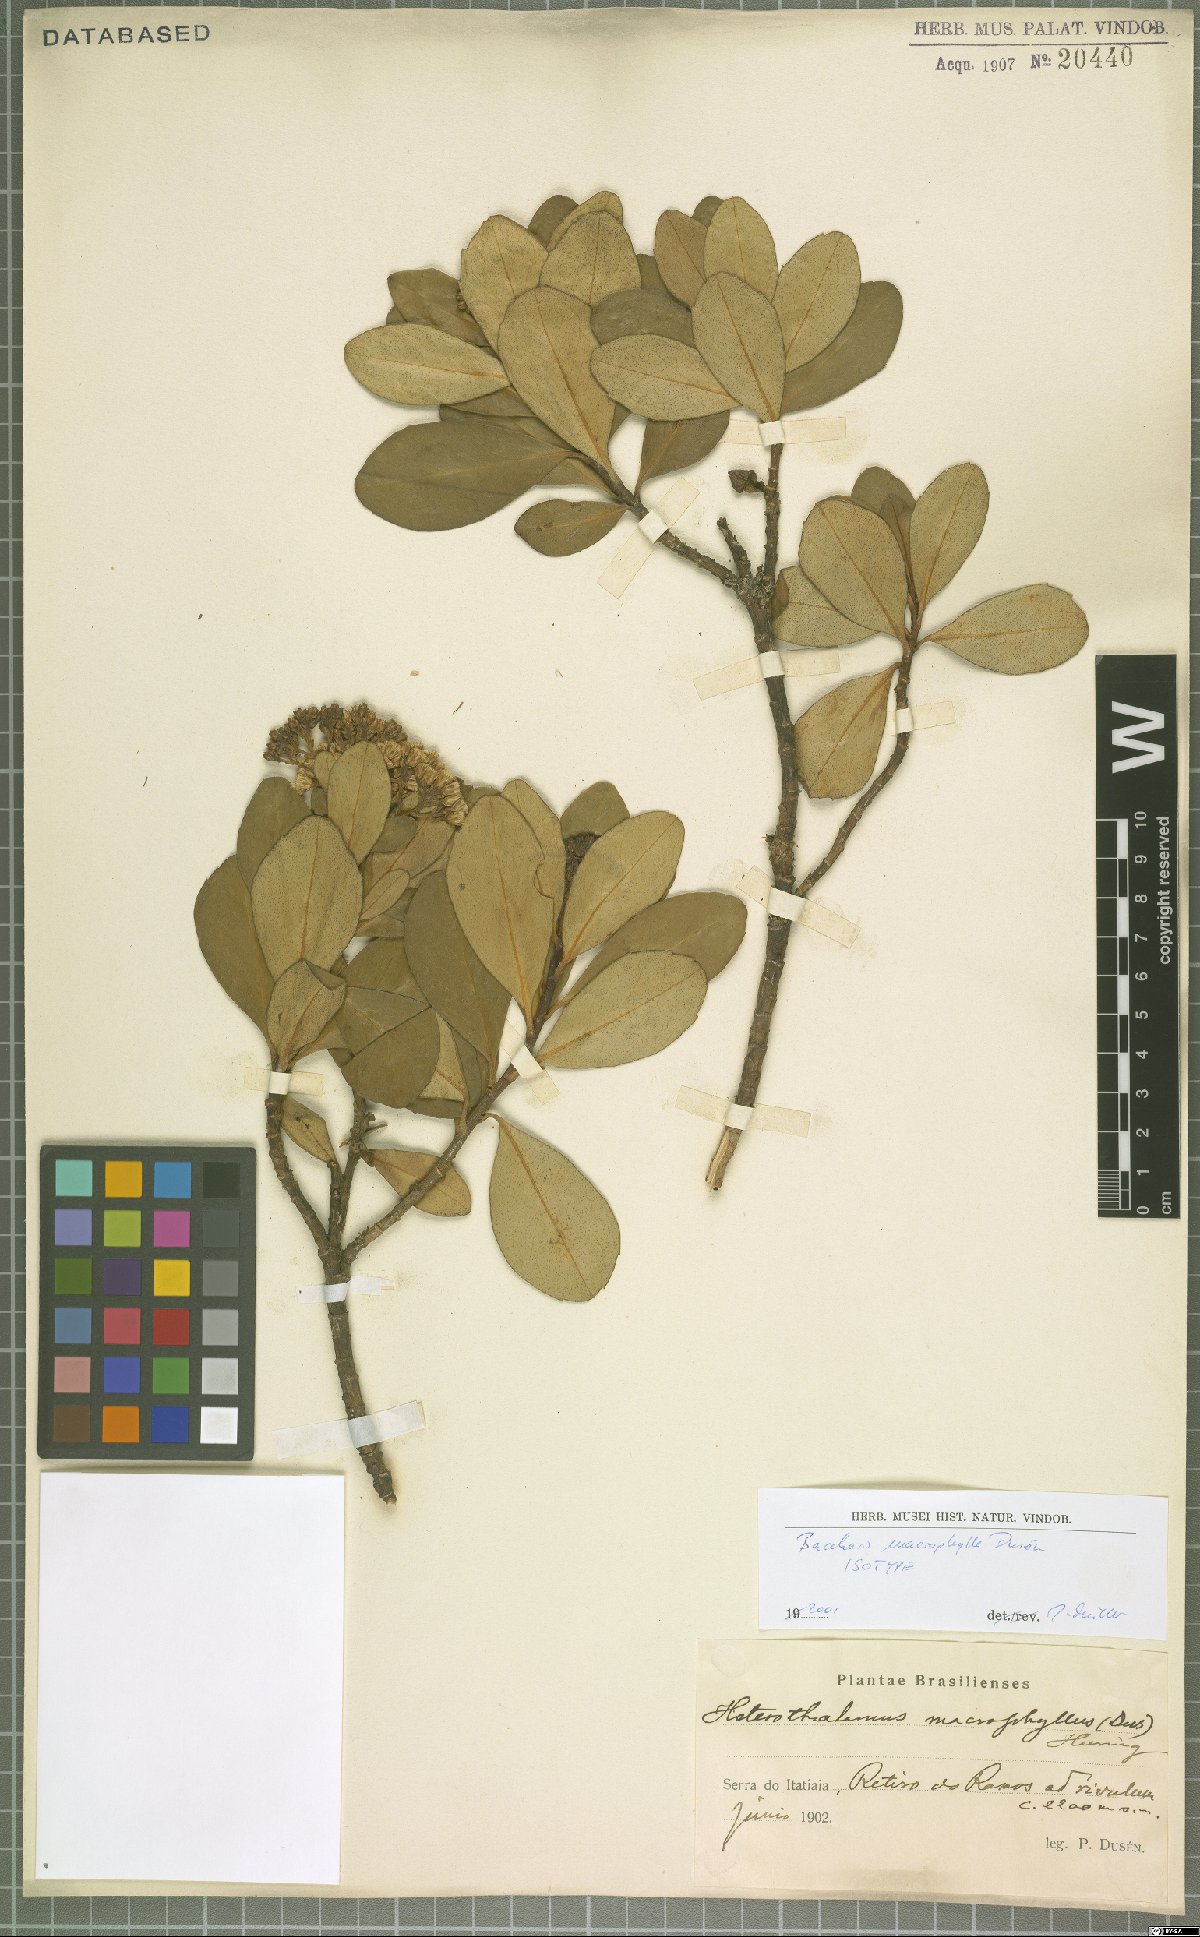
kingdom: Plantae
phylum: Tracheophyta
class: Magnoliopsida
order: Asterales
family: Asteraceae
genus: Pseudobaccharis
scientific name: Pseudobaccharis macrophylla
